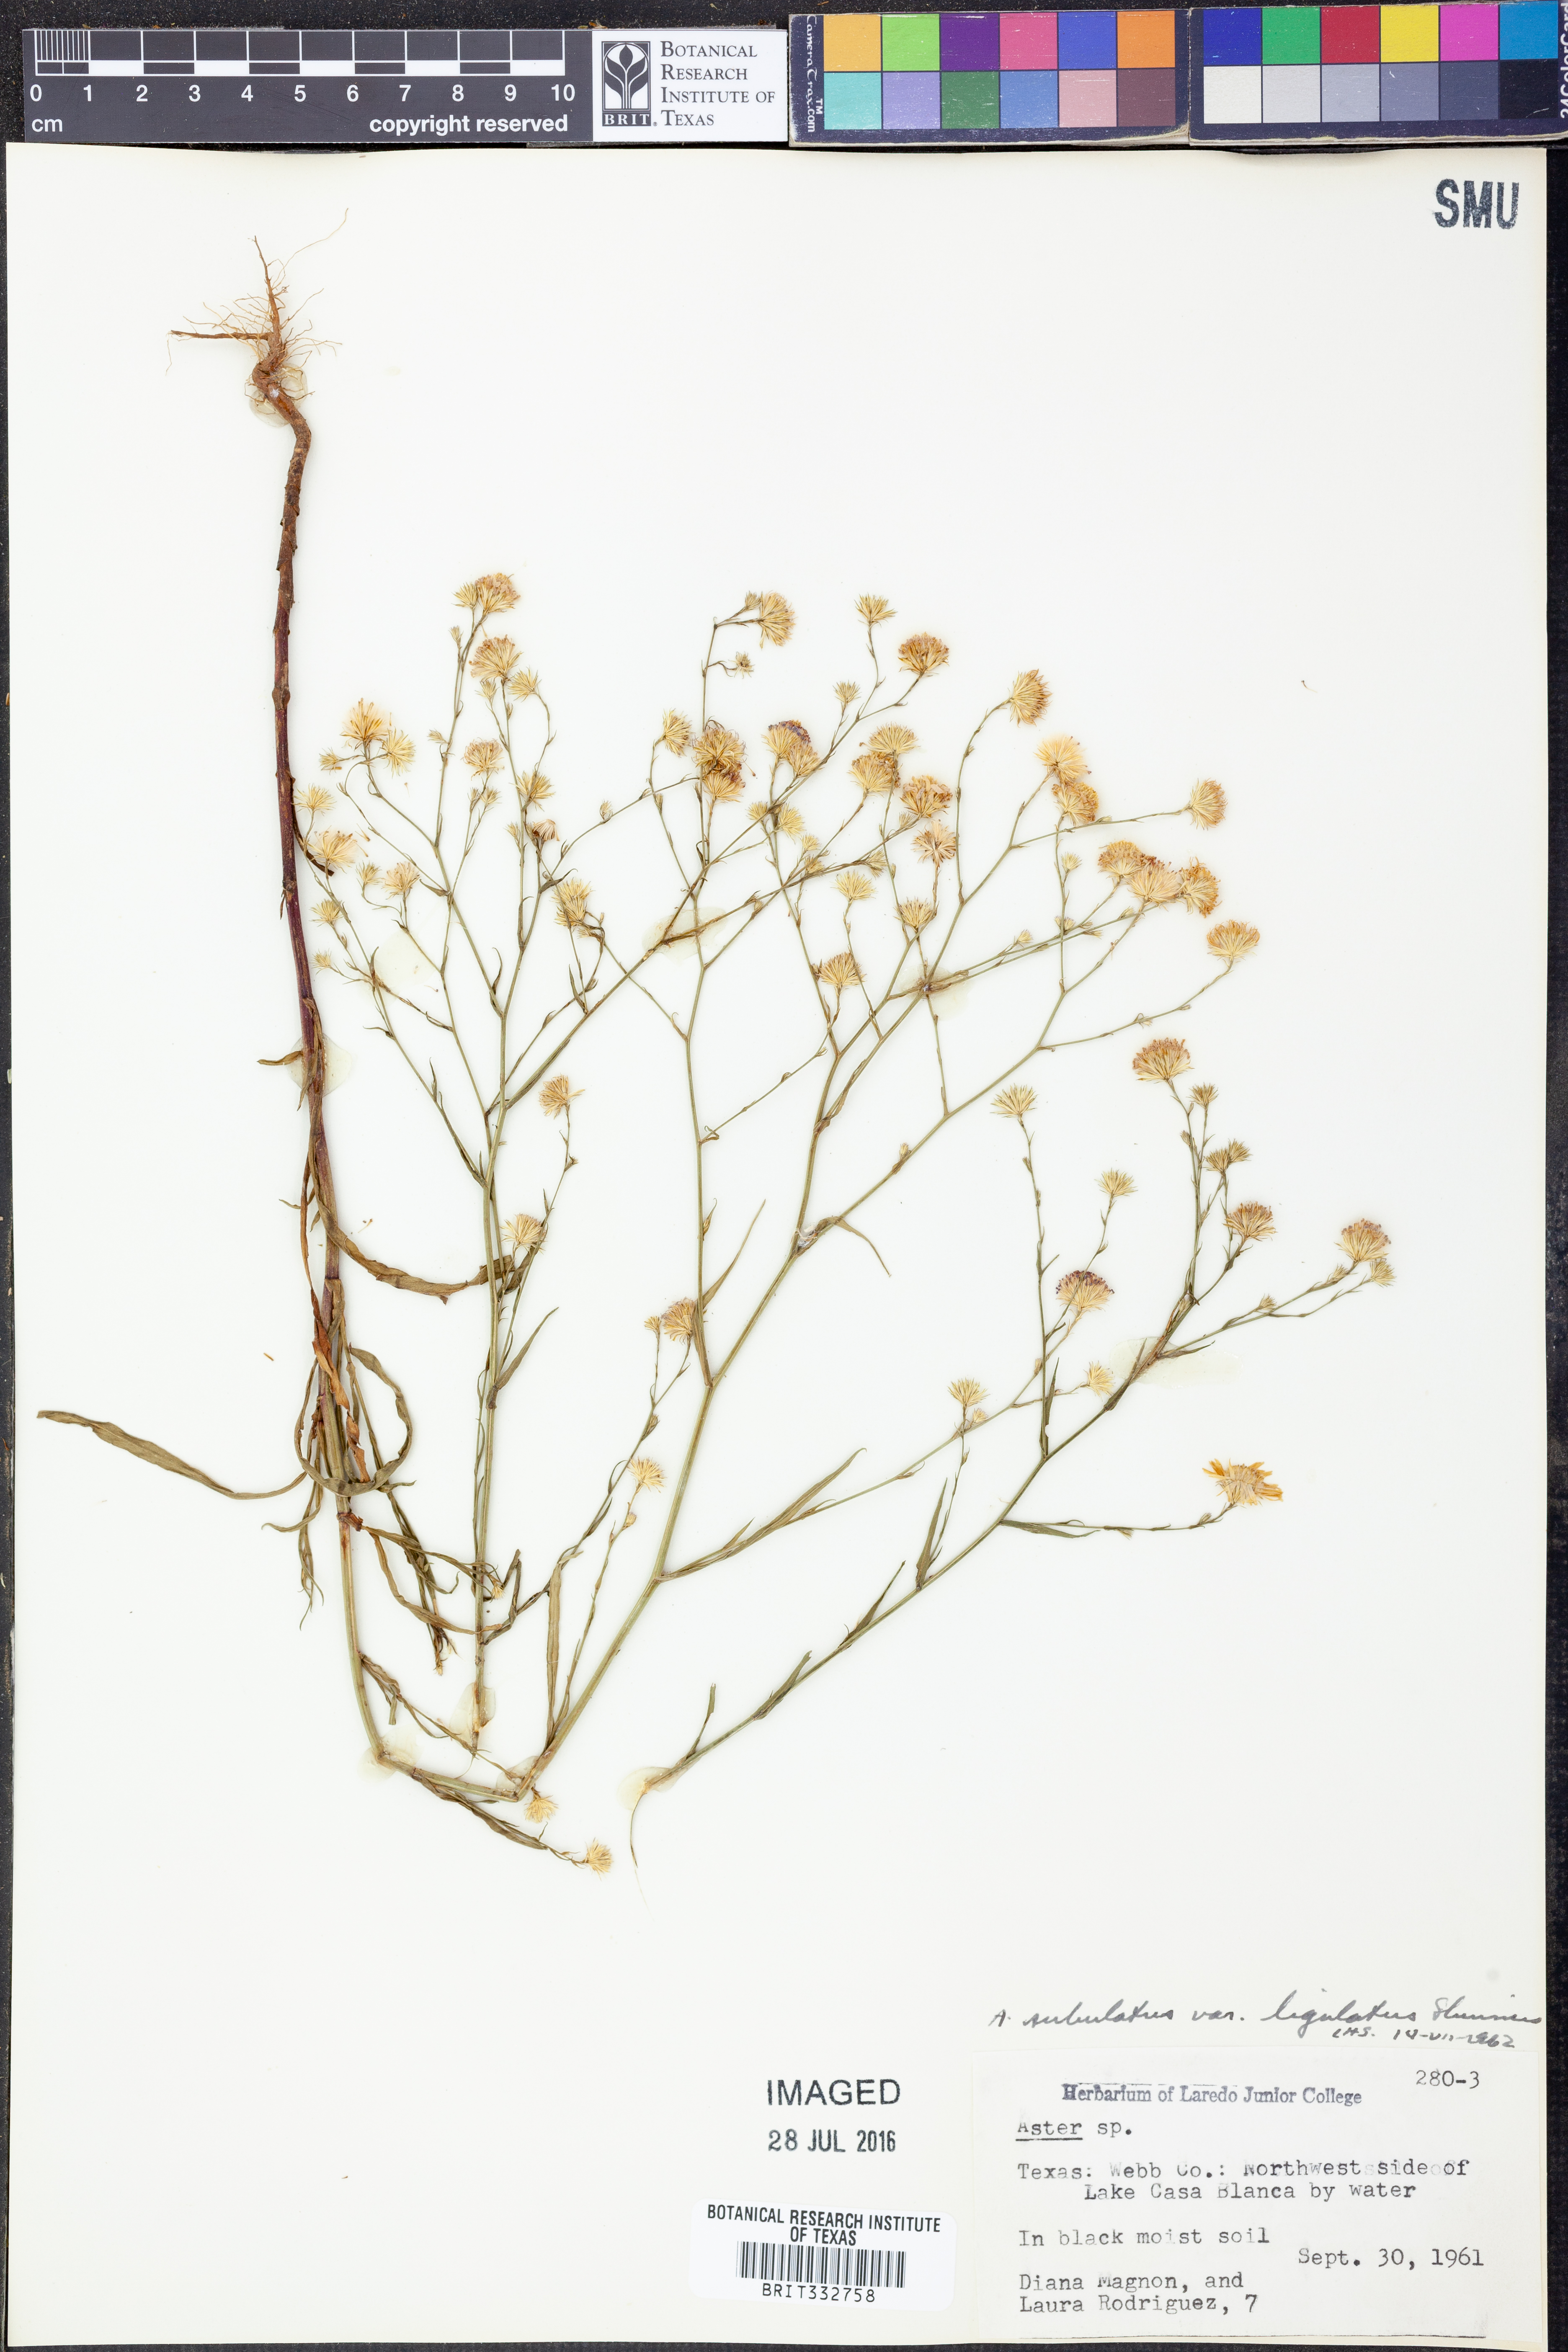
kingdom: Plantae
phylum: Tracheophyta
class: Magnoliopsida
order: Asterales
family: Asteraceae
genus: Symphyotrichum
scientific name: Symphyotrichum divaricatum
